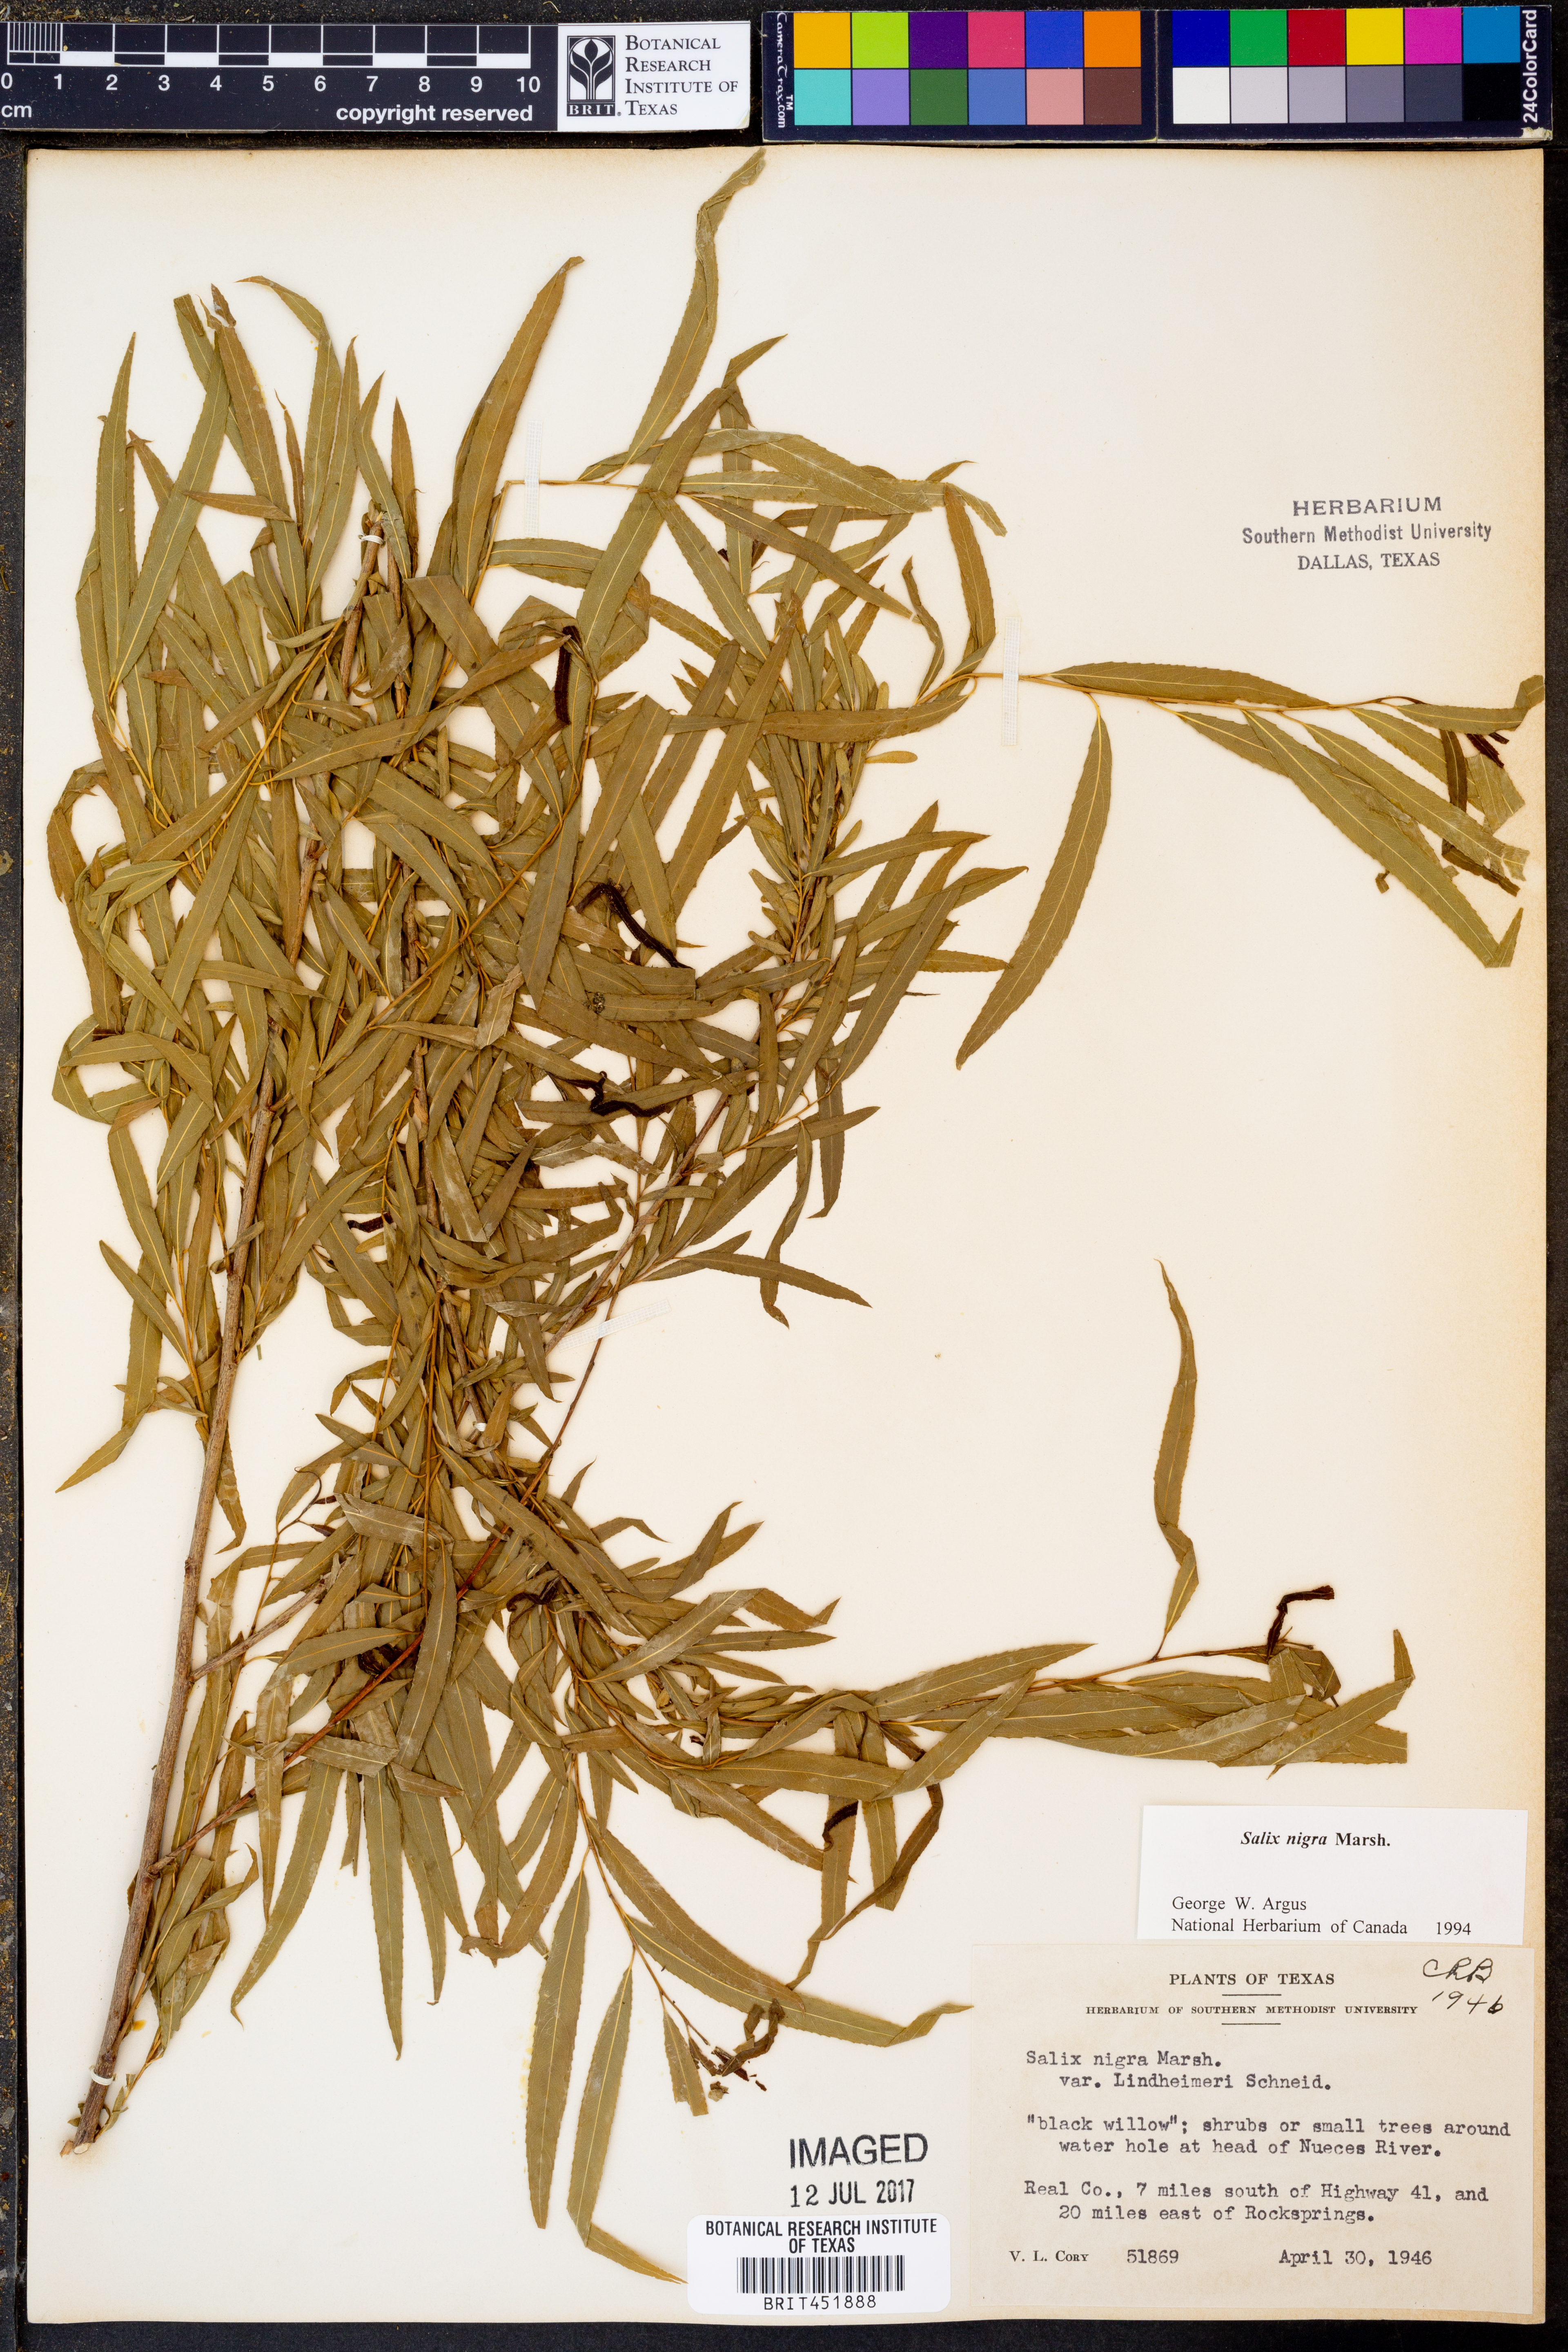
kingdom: Plantae
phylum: Tracheophyta
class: Magnoliopsida
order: Malpighiales
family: Salicaceae
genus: Salix
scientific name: Salix nigra
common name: Black willow
